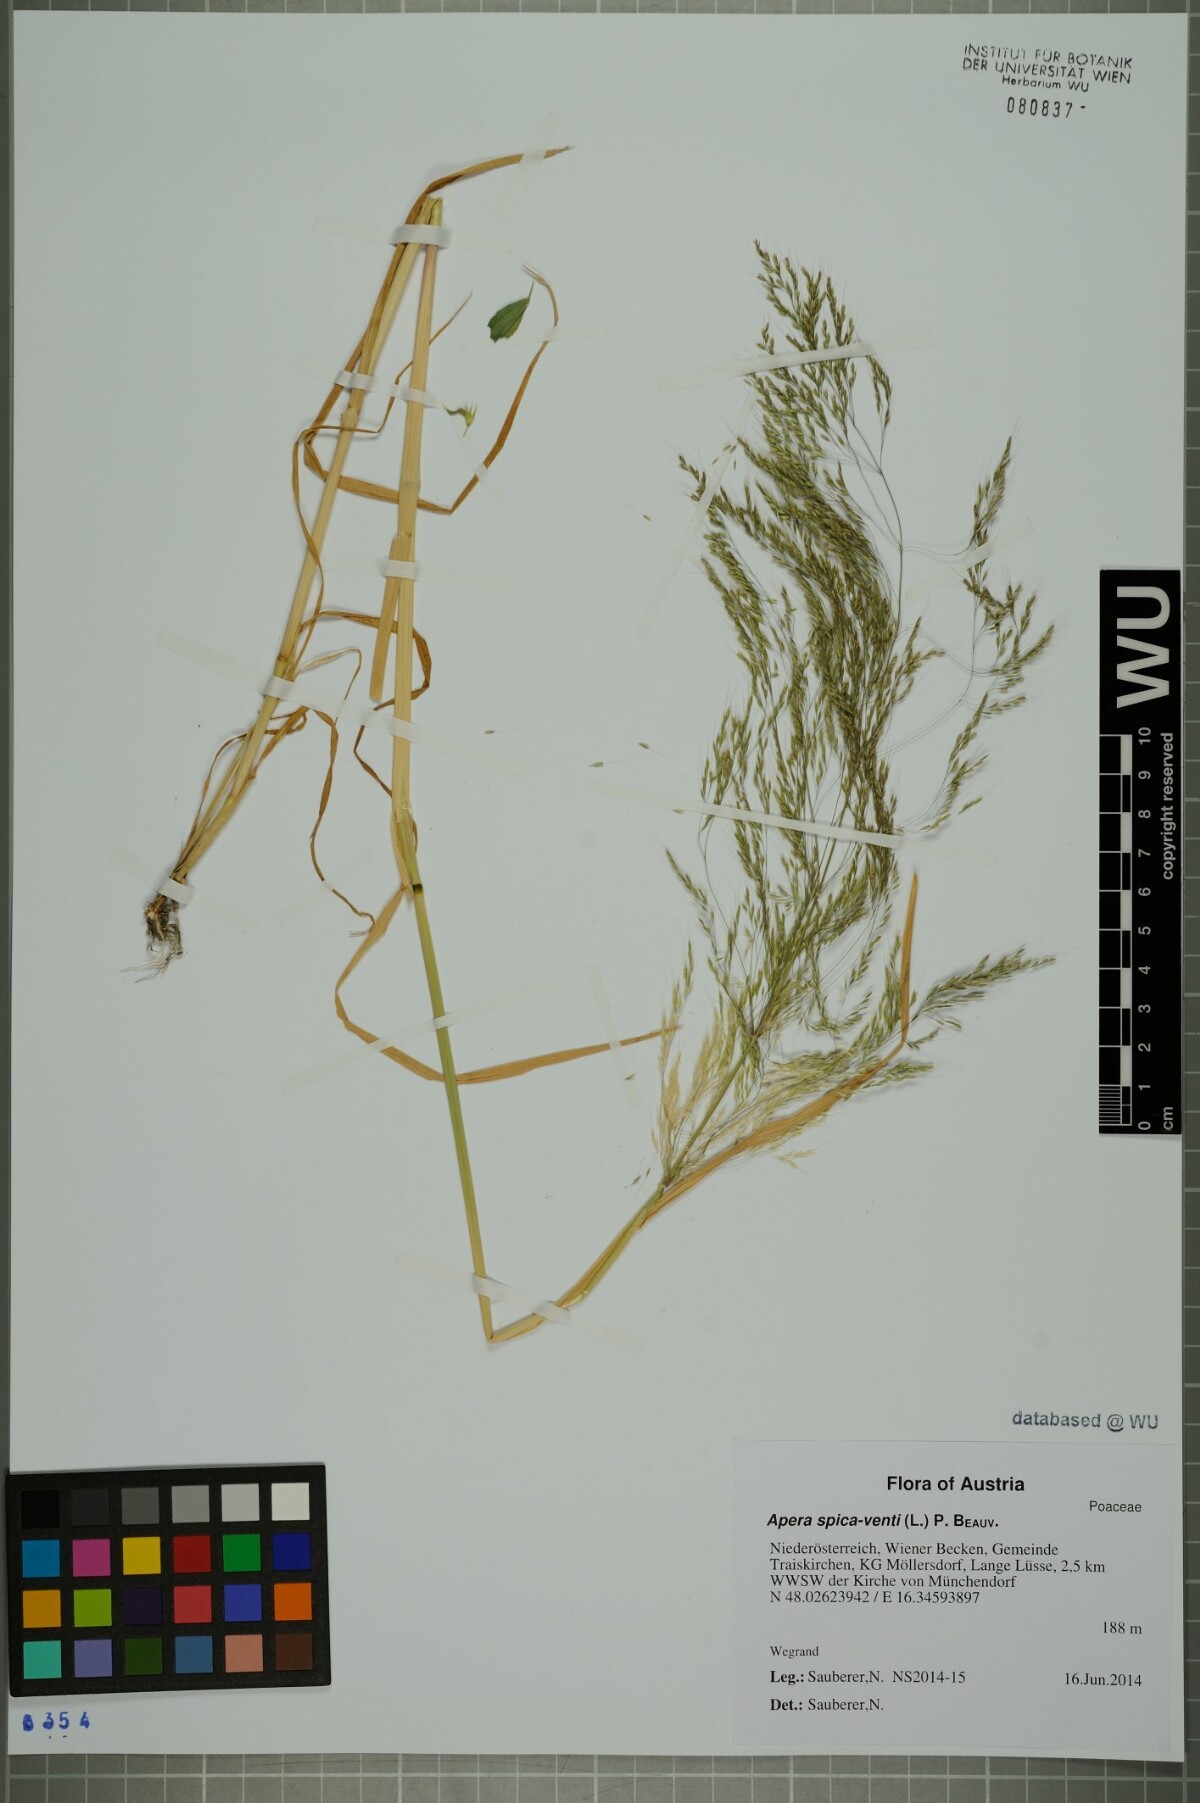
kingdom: Plantae
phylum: Tracheophyta
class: Liliopsida
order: Poales
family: Poaceae
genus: Apera
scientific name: Apera spica-venti
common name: Loose silky-bent
